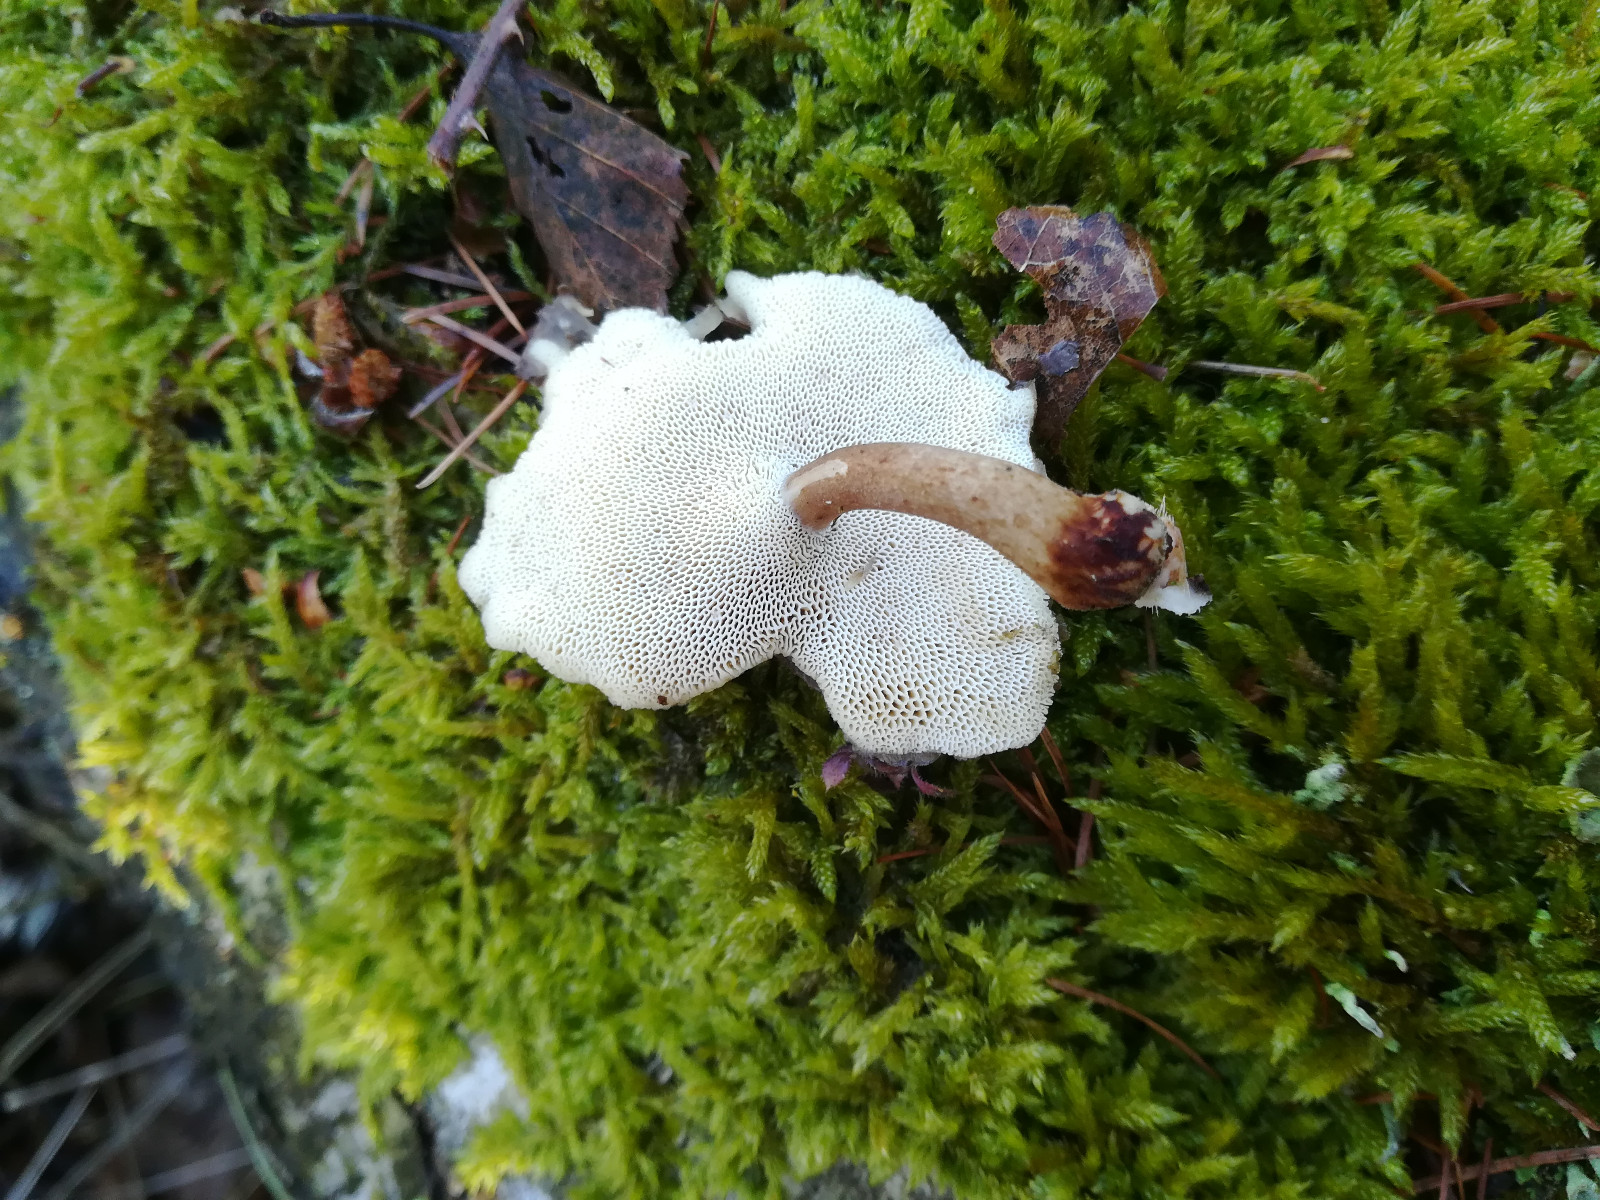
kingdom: Fungi
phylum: Basidiomycota
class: Agaricomycetes
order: Polyporales
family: Polyporaceae
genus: Lentinus
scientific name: Lentinus brumalis
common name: vinter-stilkporesvamp
